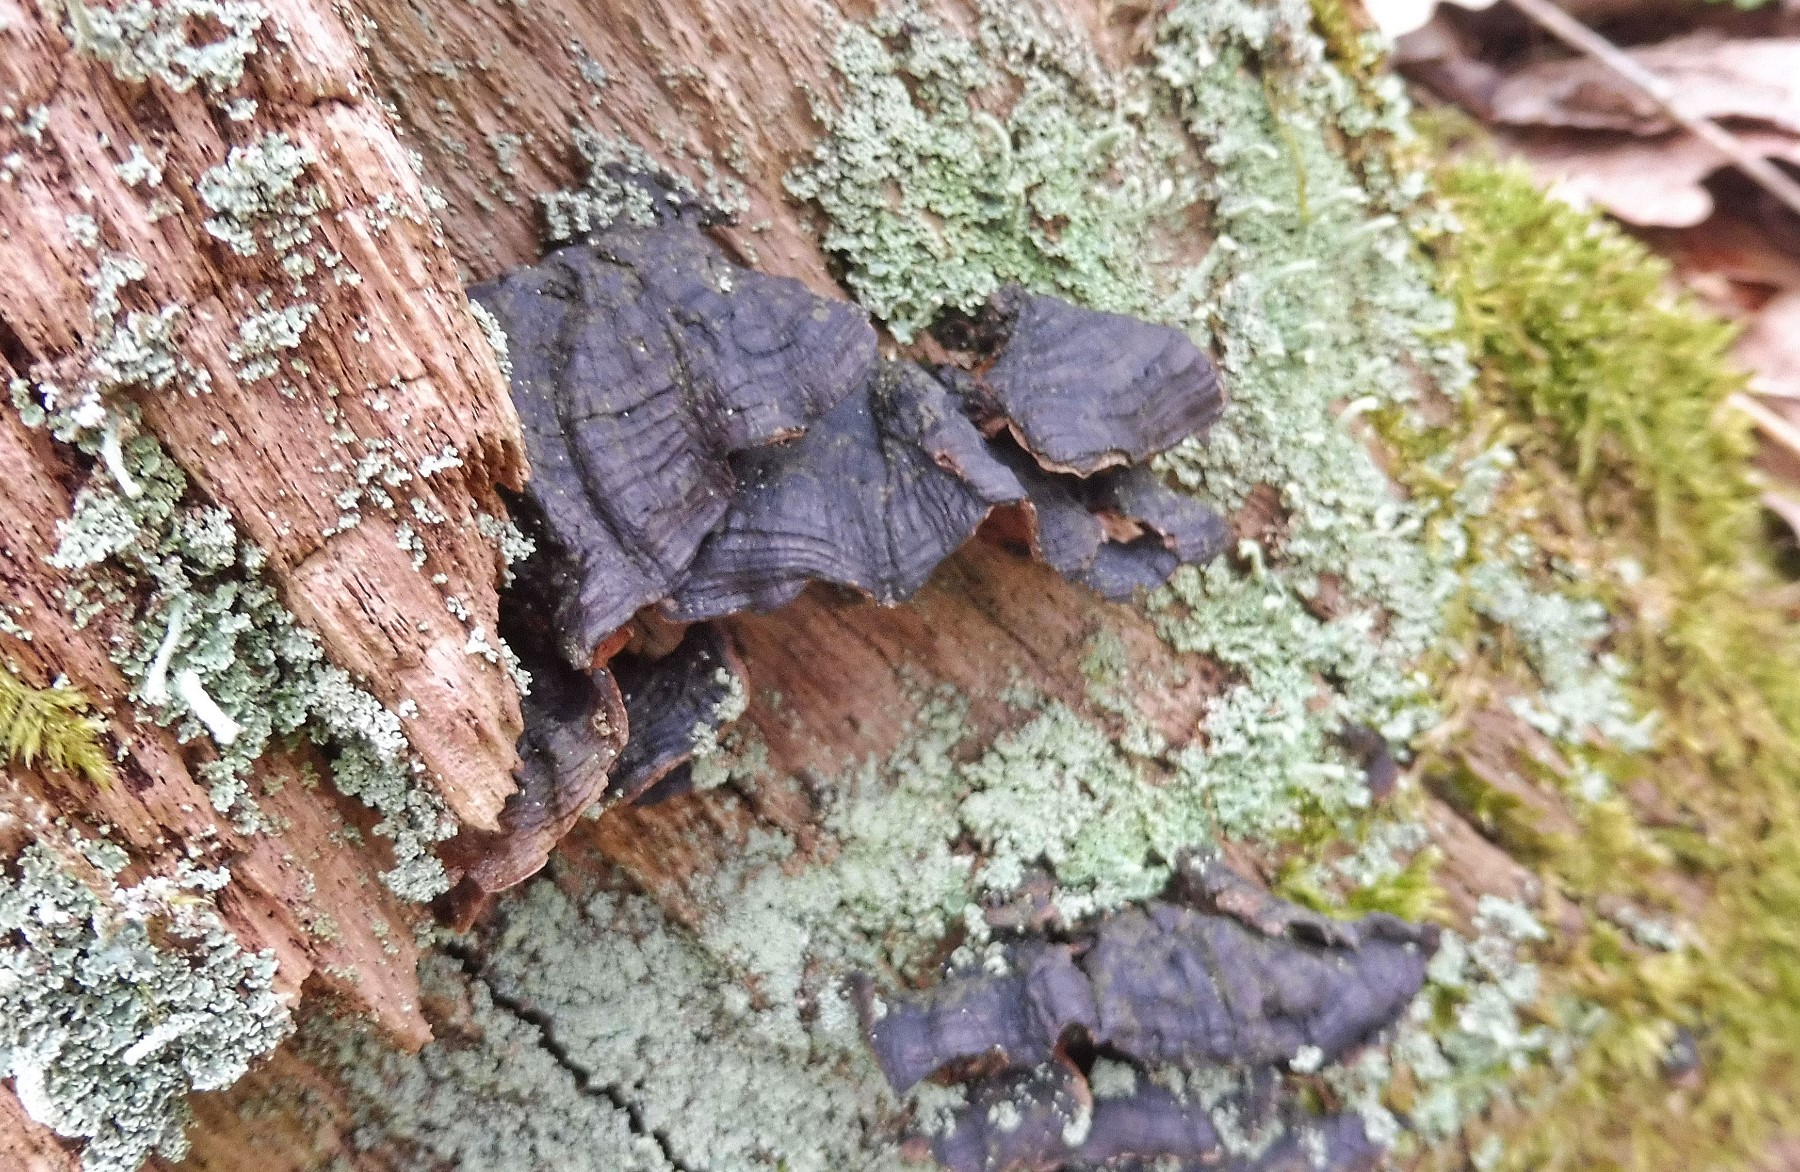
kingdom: Fungi
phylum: Basidiomycota
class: Agaricomycetes
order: Hymenochaetales
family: Hymenochaetaceae
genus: Hymenochaete
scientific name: Hymenochaete rubiginosa
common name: stiv ruslædersvamp
